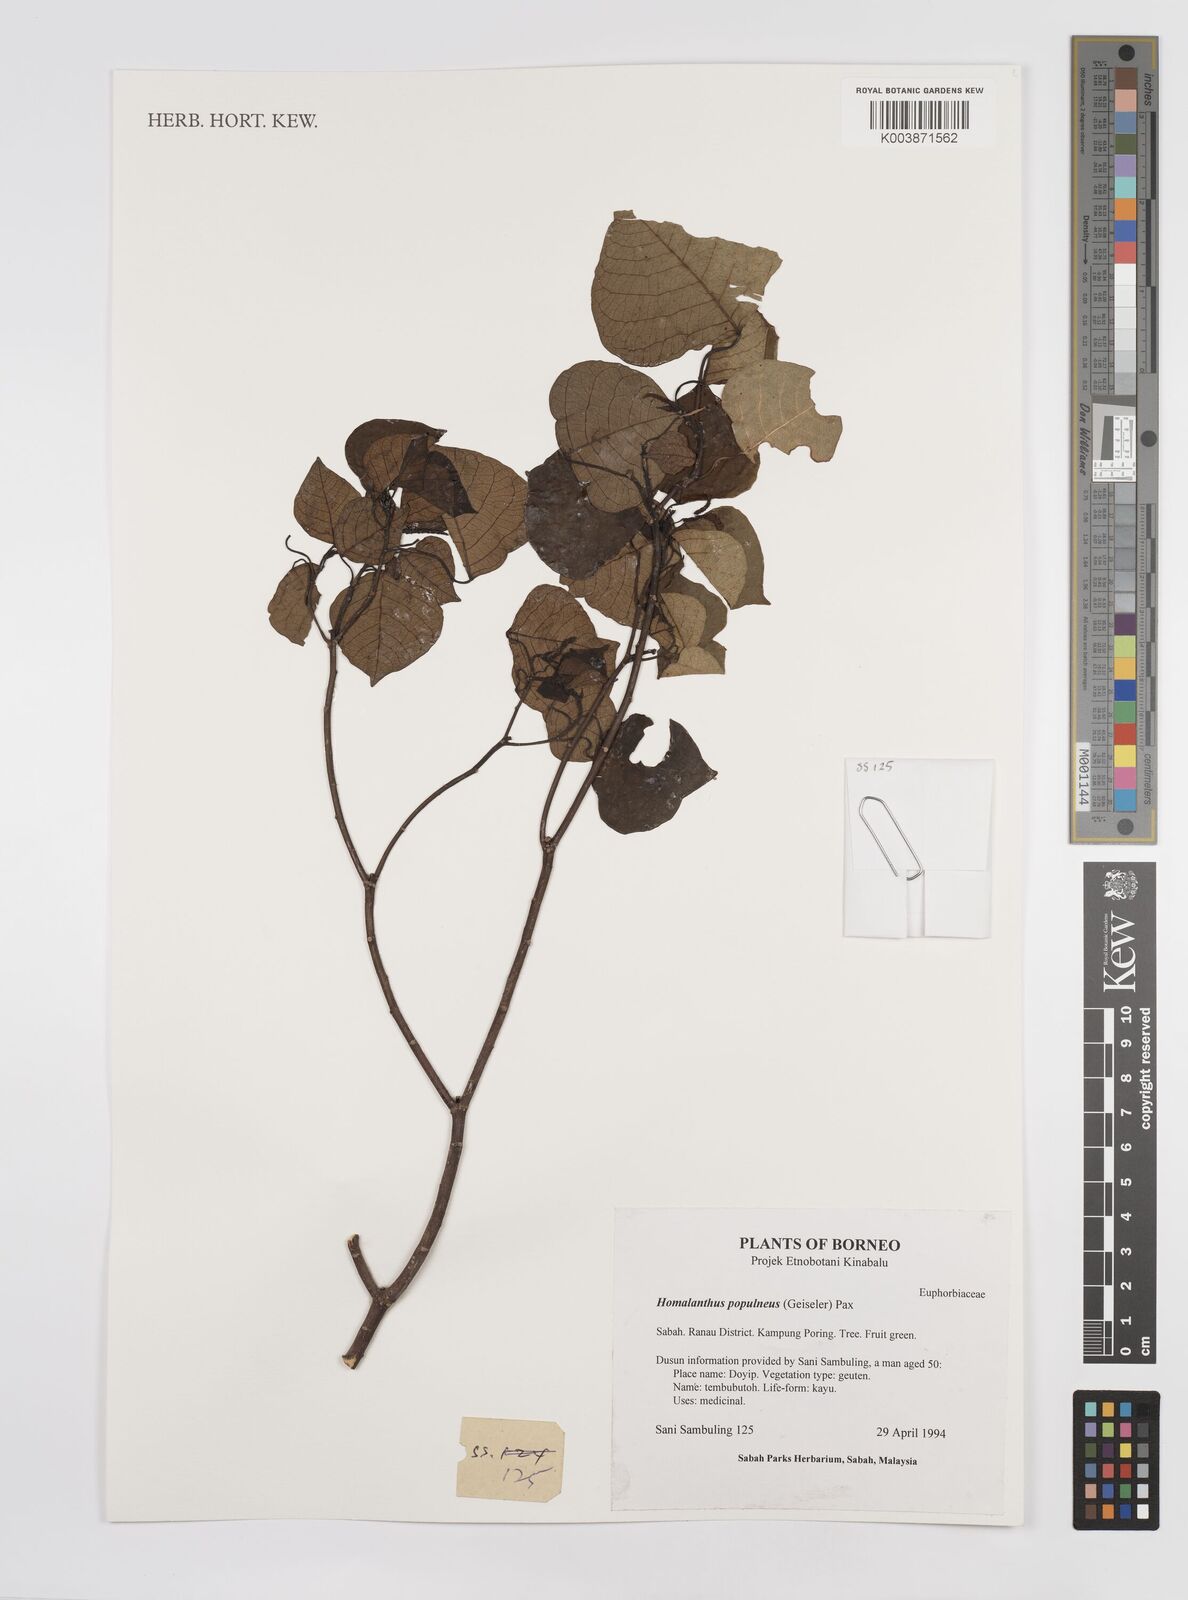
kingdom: Plantae
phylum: Tracheophyta
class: Magnoliopsida
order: Malpighiales
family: Euphorbiaceae
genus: Homalanthus
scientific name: Homalanthus populneus
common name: Spurge
